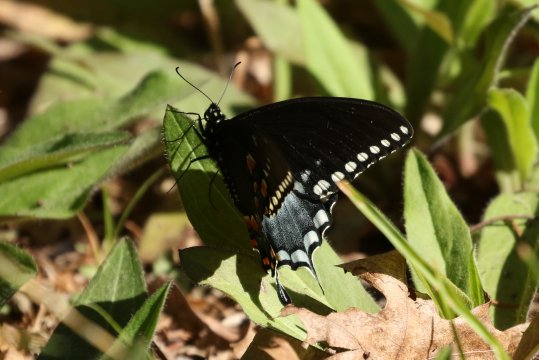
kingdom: Animalia
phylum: Arthropoda
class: Insecta
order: Lepidoptera
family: Papilionidae
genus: Pterourus
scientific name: Pterourus troilus
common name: Spicebush Swallowtail
